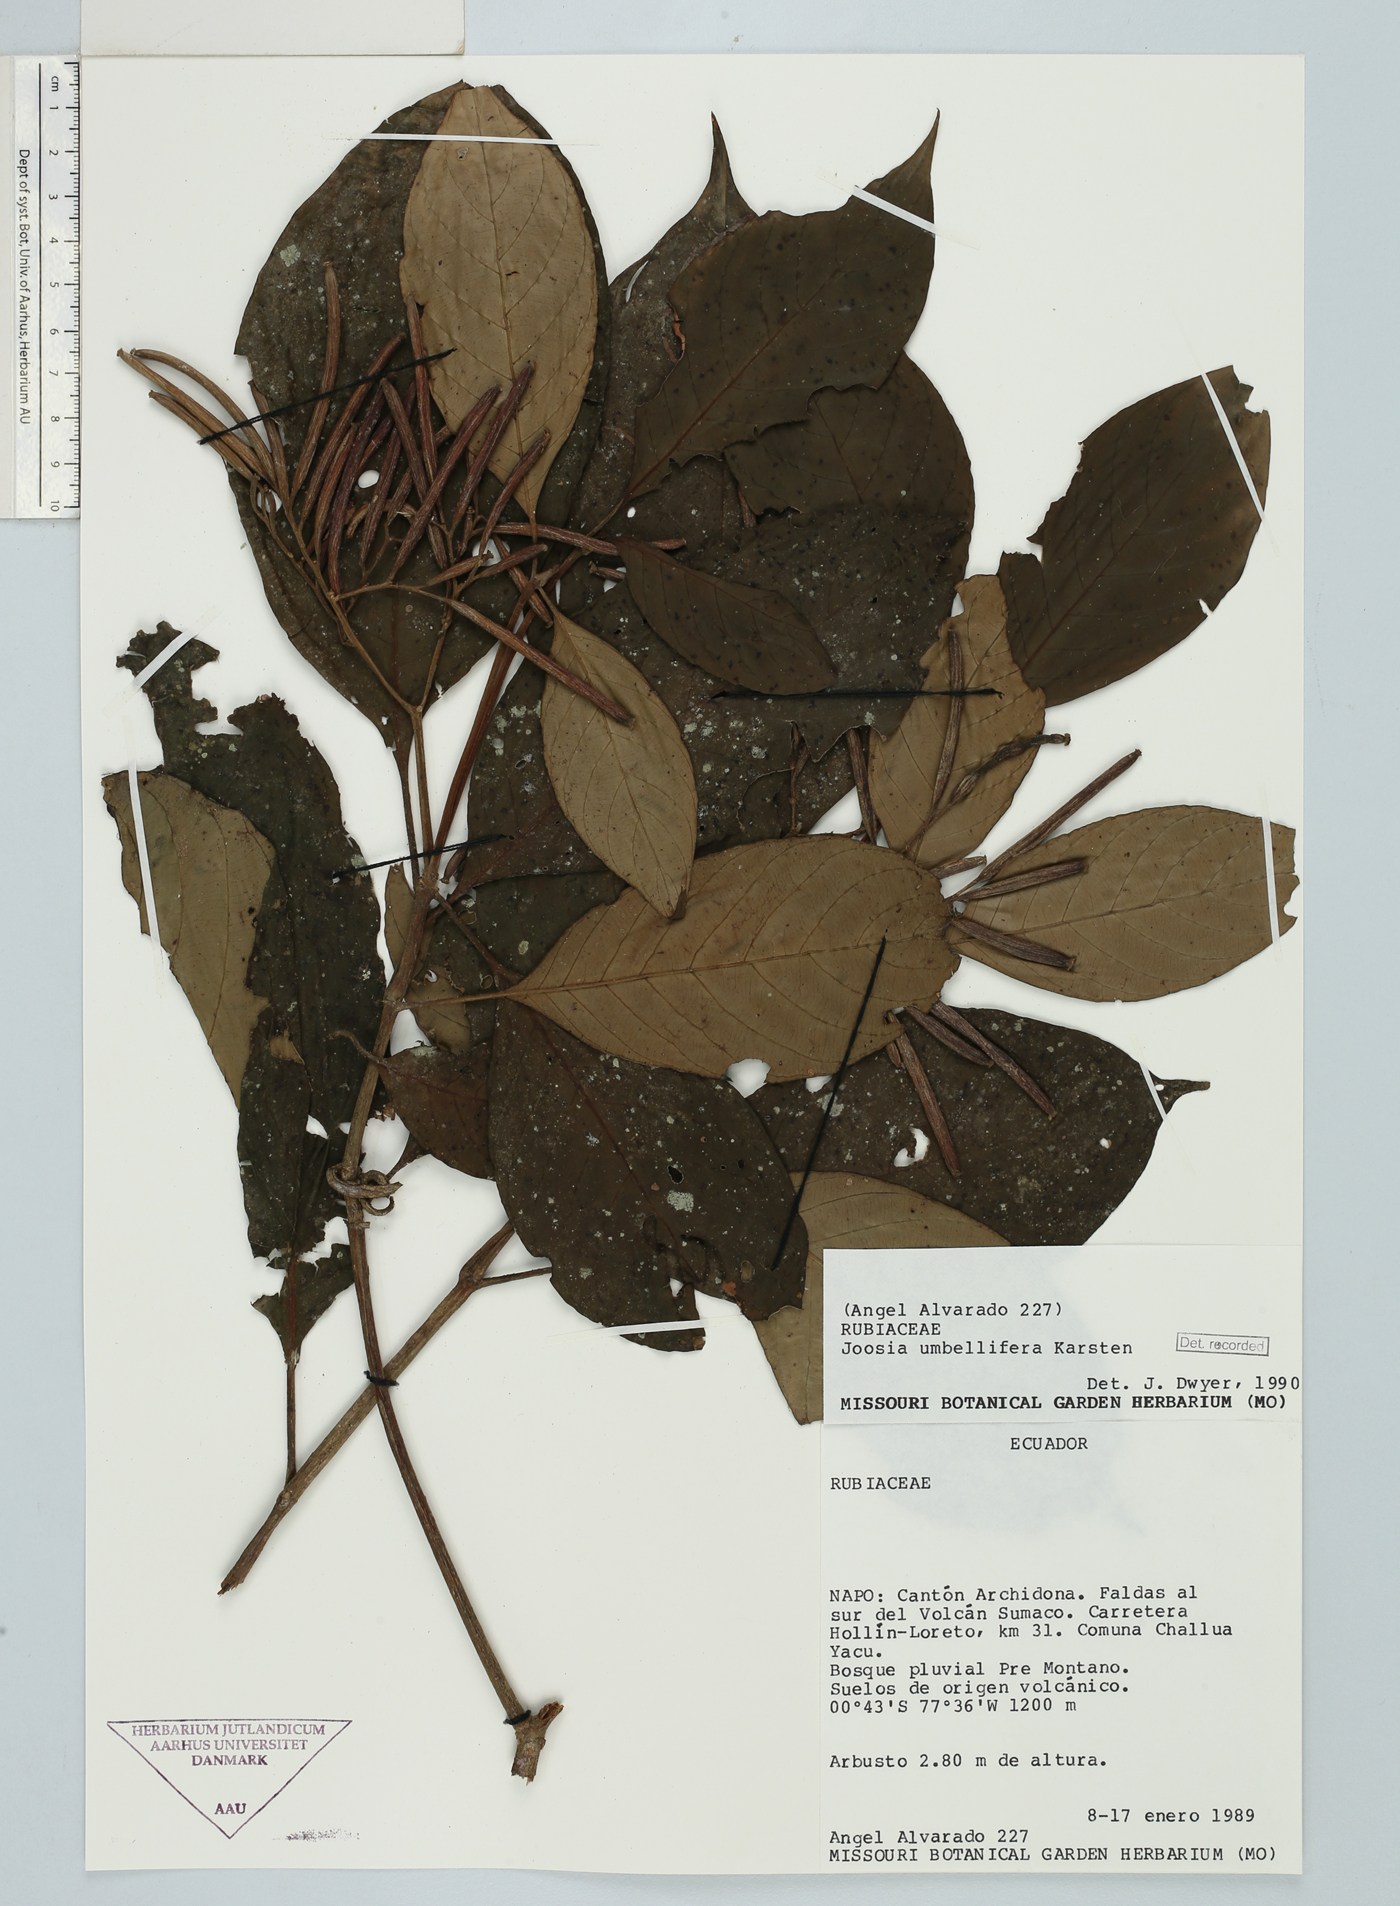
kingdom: Plantae
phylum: Tracheophyta
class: Magnoliopsida
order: Gentianales
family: Rubiaceae
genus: Joosia
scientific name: Joosia ulei
